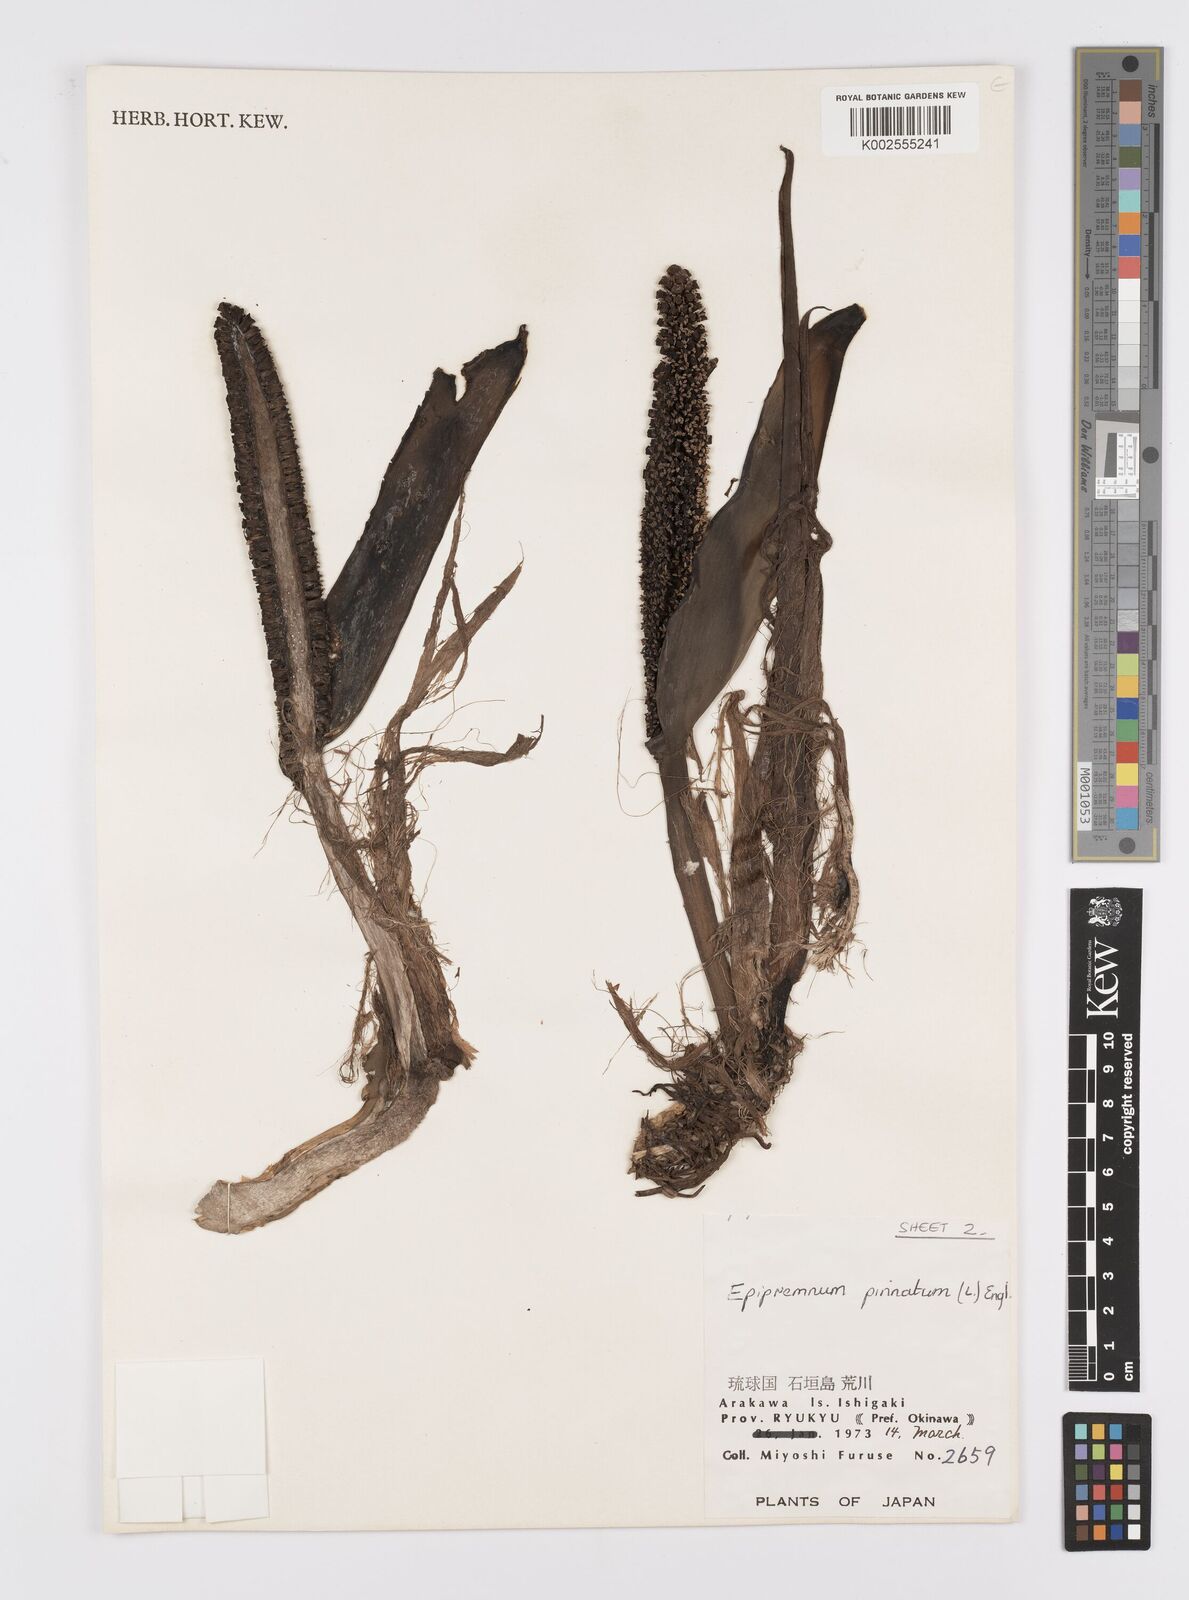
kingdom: Plantae
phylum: Tracheophyta
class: Liliopsida
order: Alismatales
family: Araceae
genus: Epipremnum
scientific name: Epipremnum pinnatum
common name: Centipede tongavine
